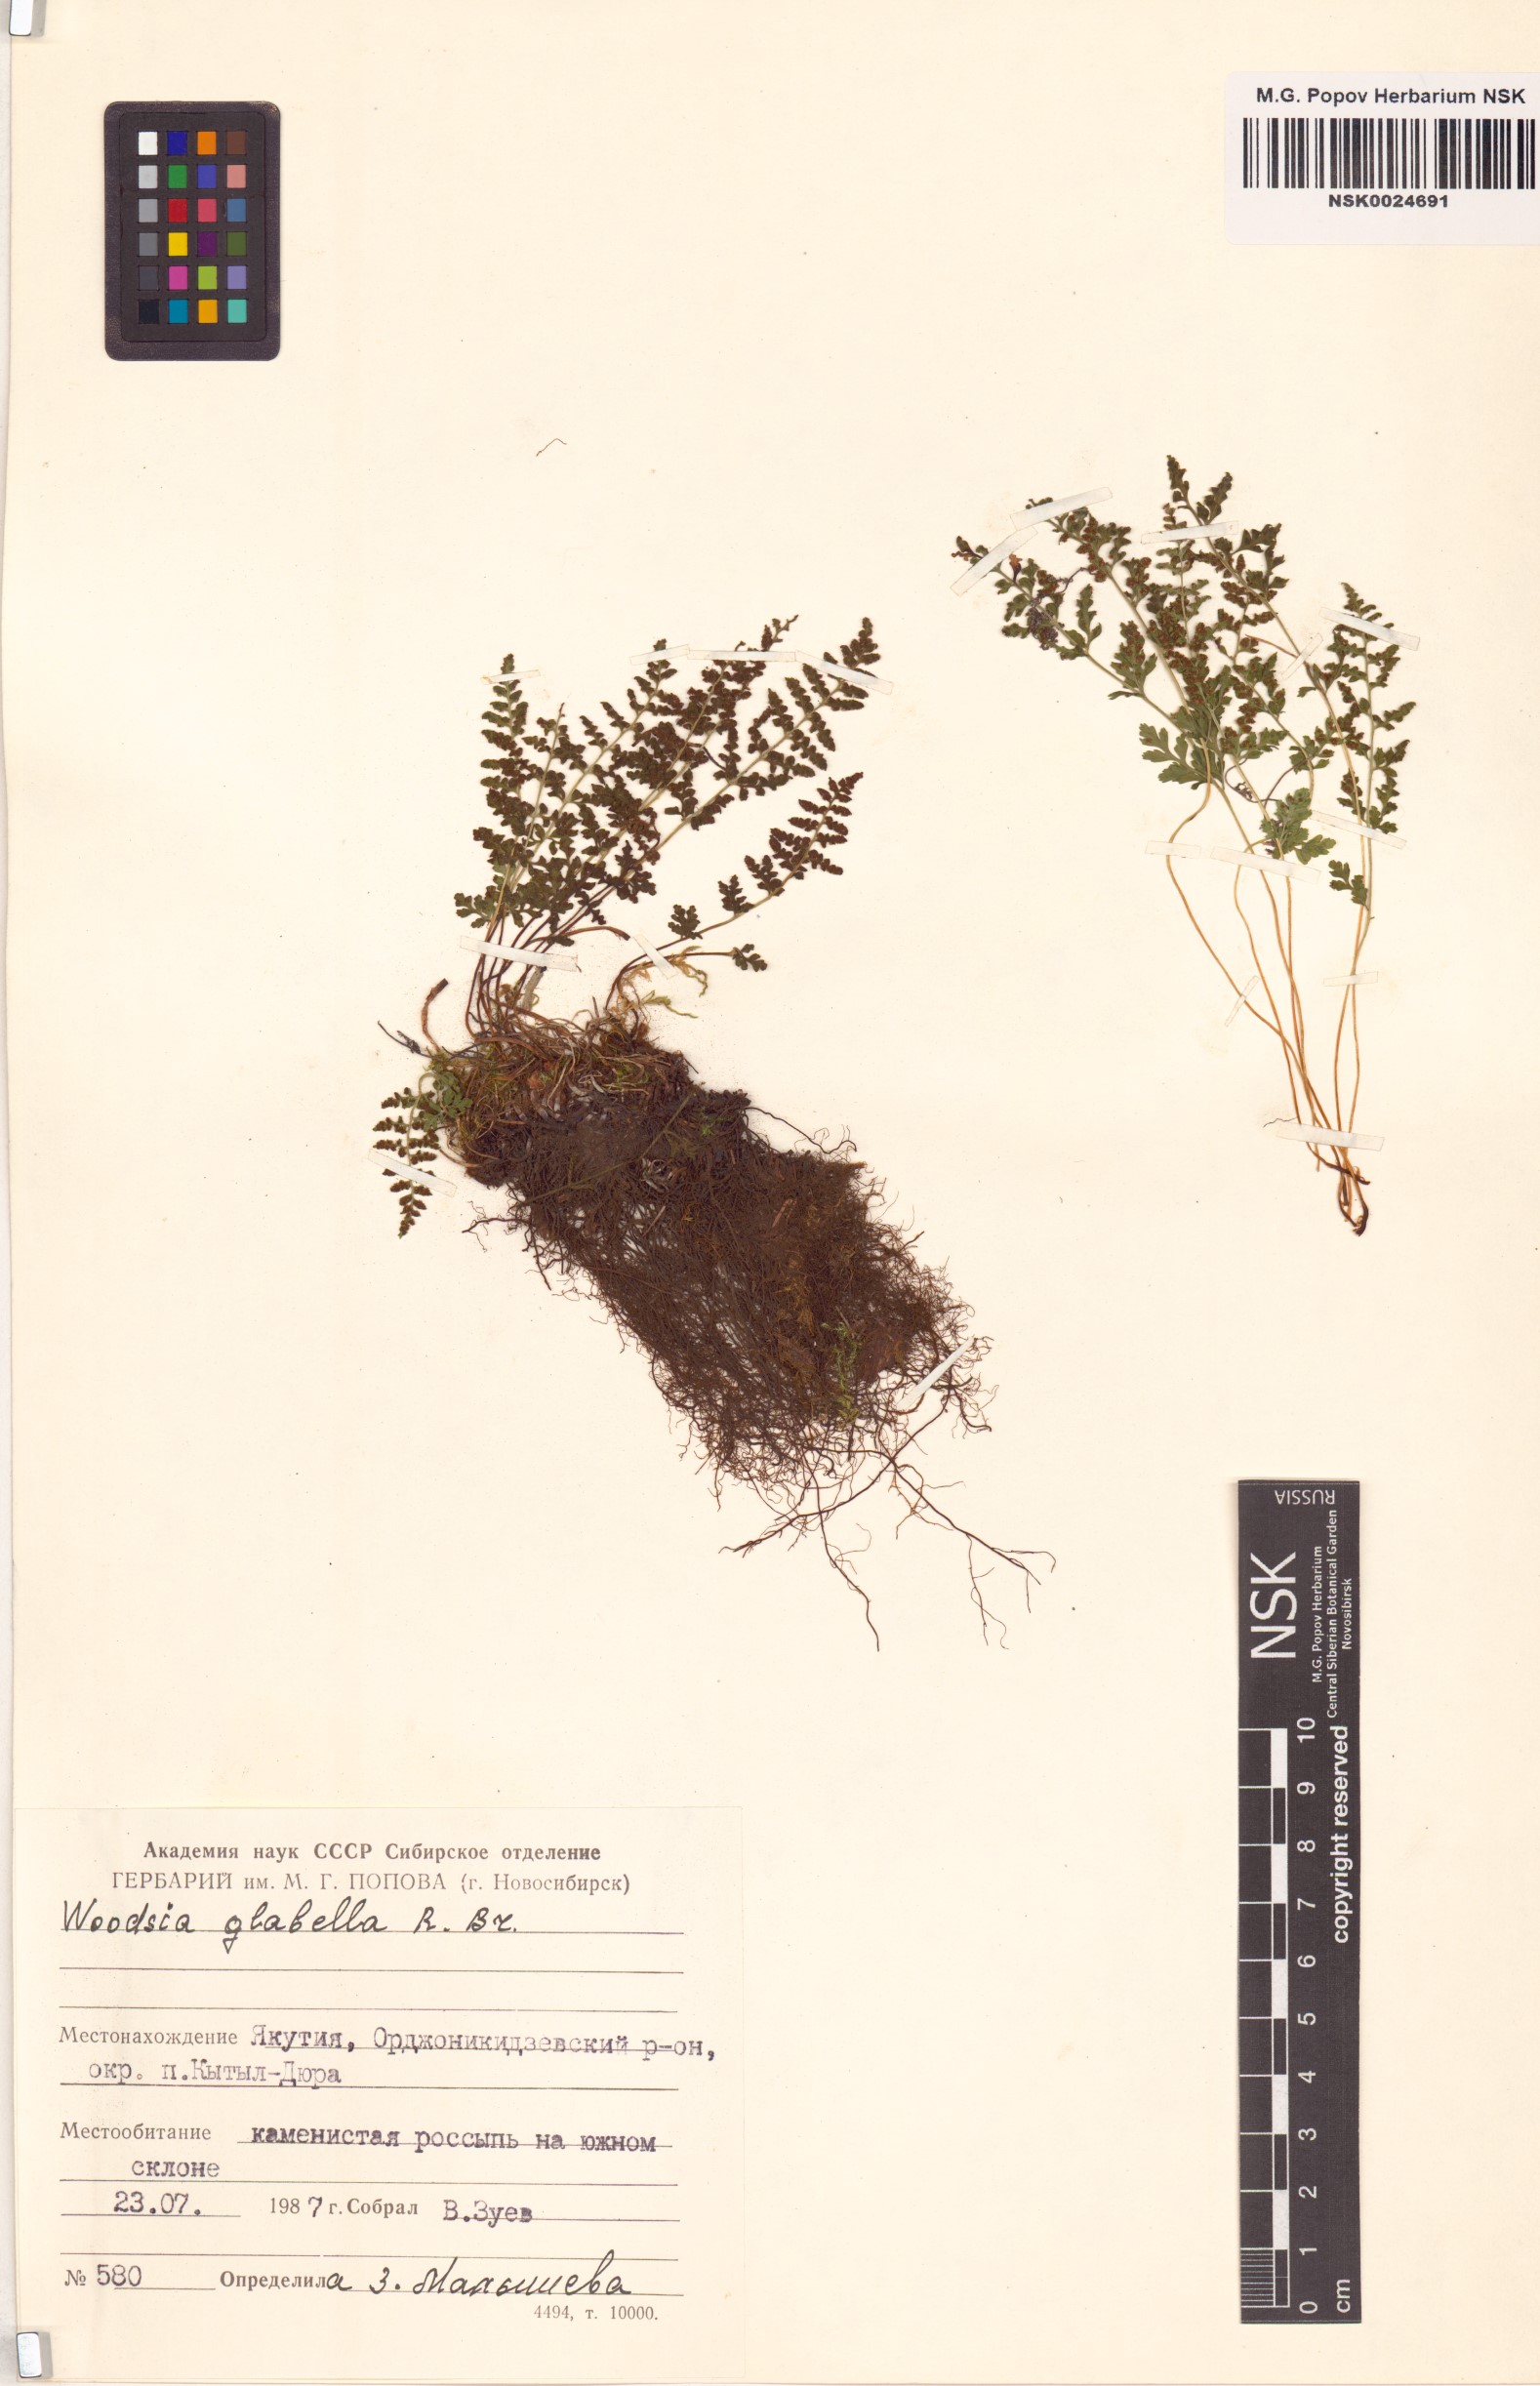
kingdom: Plantae
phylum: Tracheophyta
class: Polypodiopsida
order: Polypodiales
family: Woodsiaceae
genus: Woodsia
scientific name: Woodsia glabella
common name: Smooth woodsia
